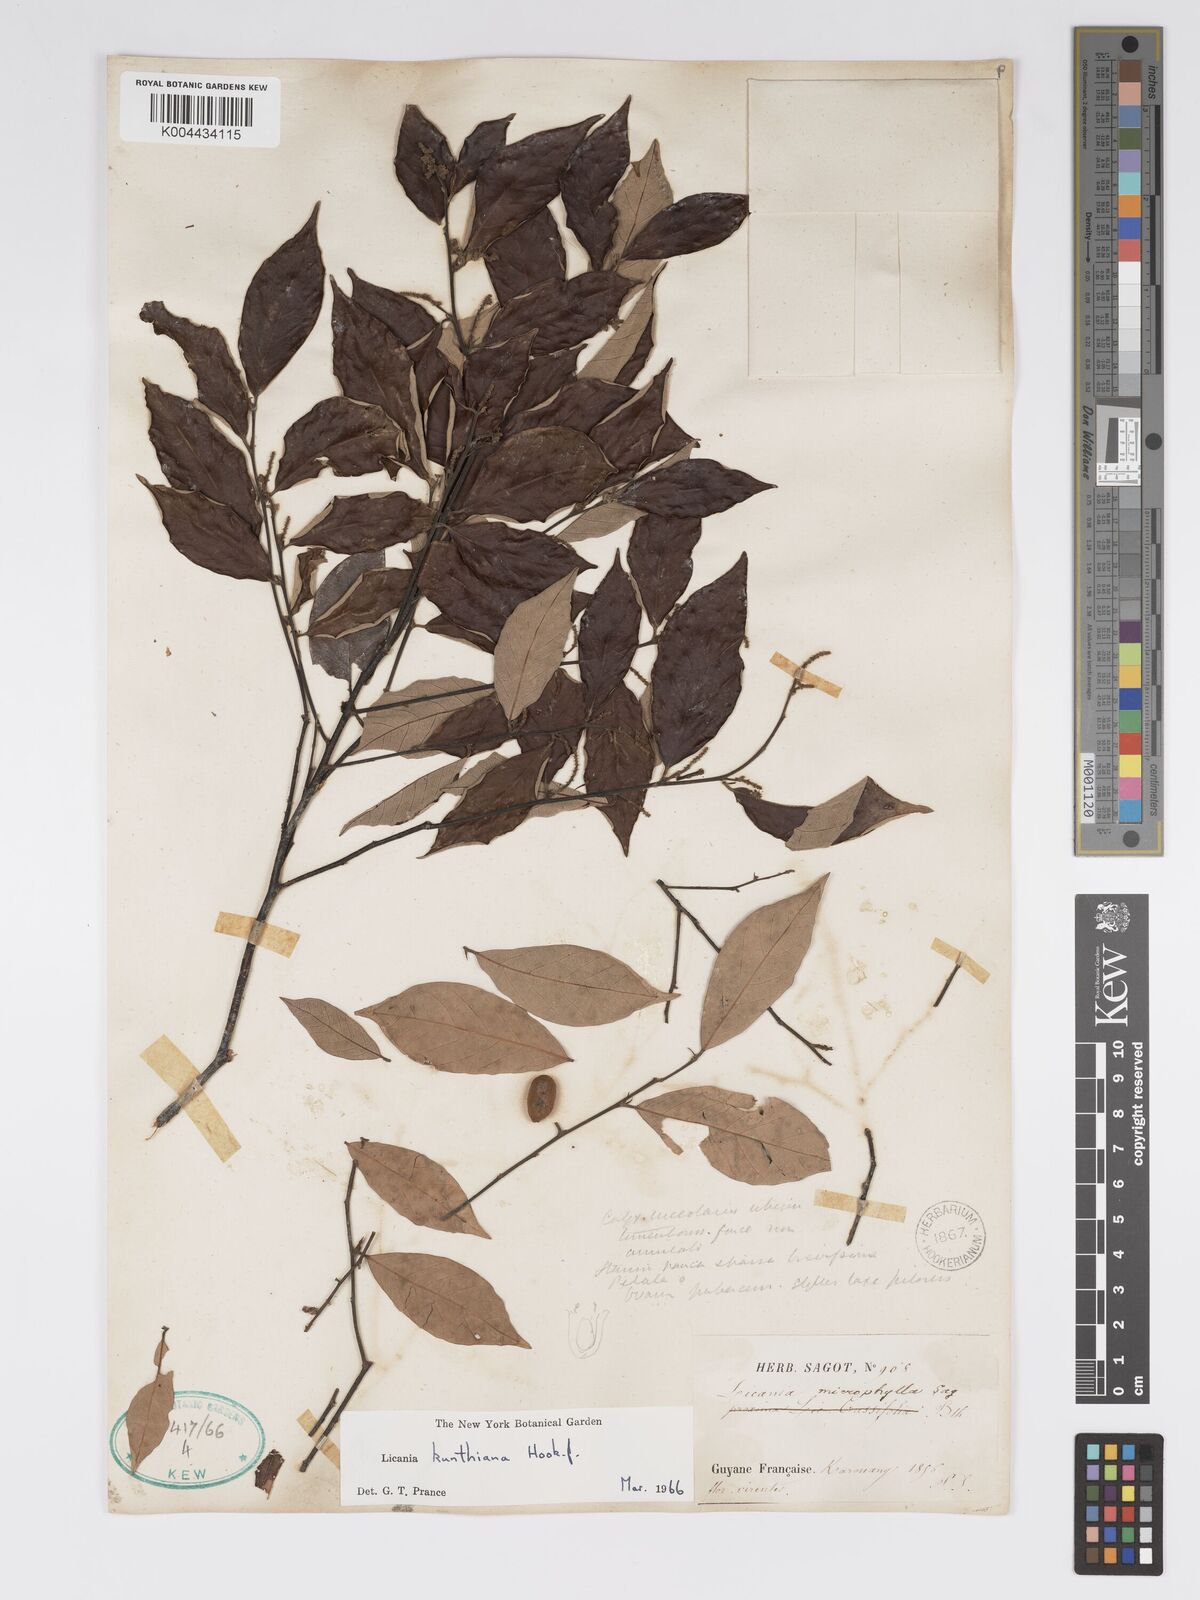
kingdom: Plantae
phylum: Tracheophyta
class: Magnoliopsida
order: Malpighiales
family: Chrysobalanaceae
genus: Licania
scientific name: Licania kunthiana
